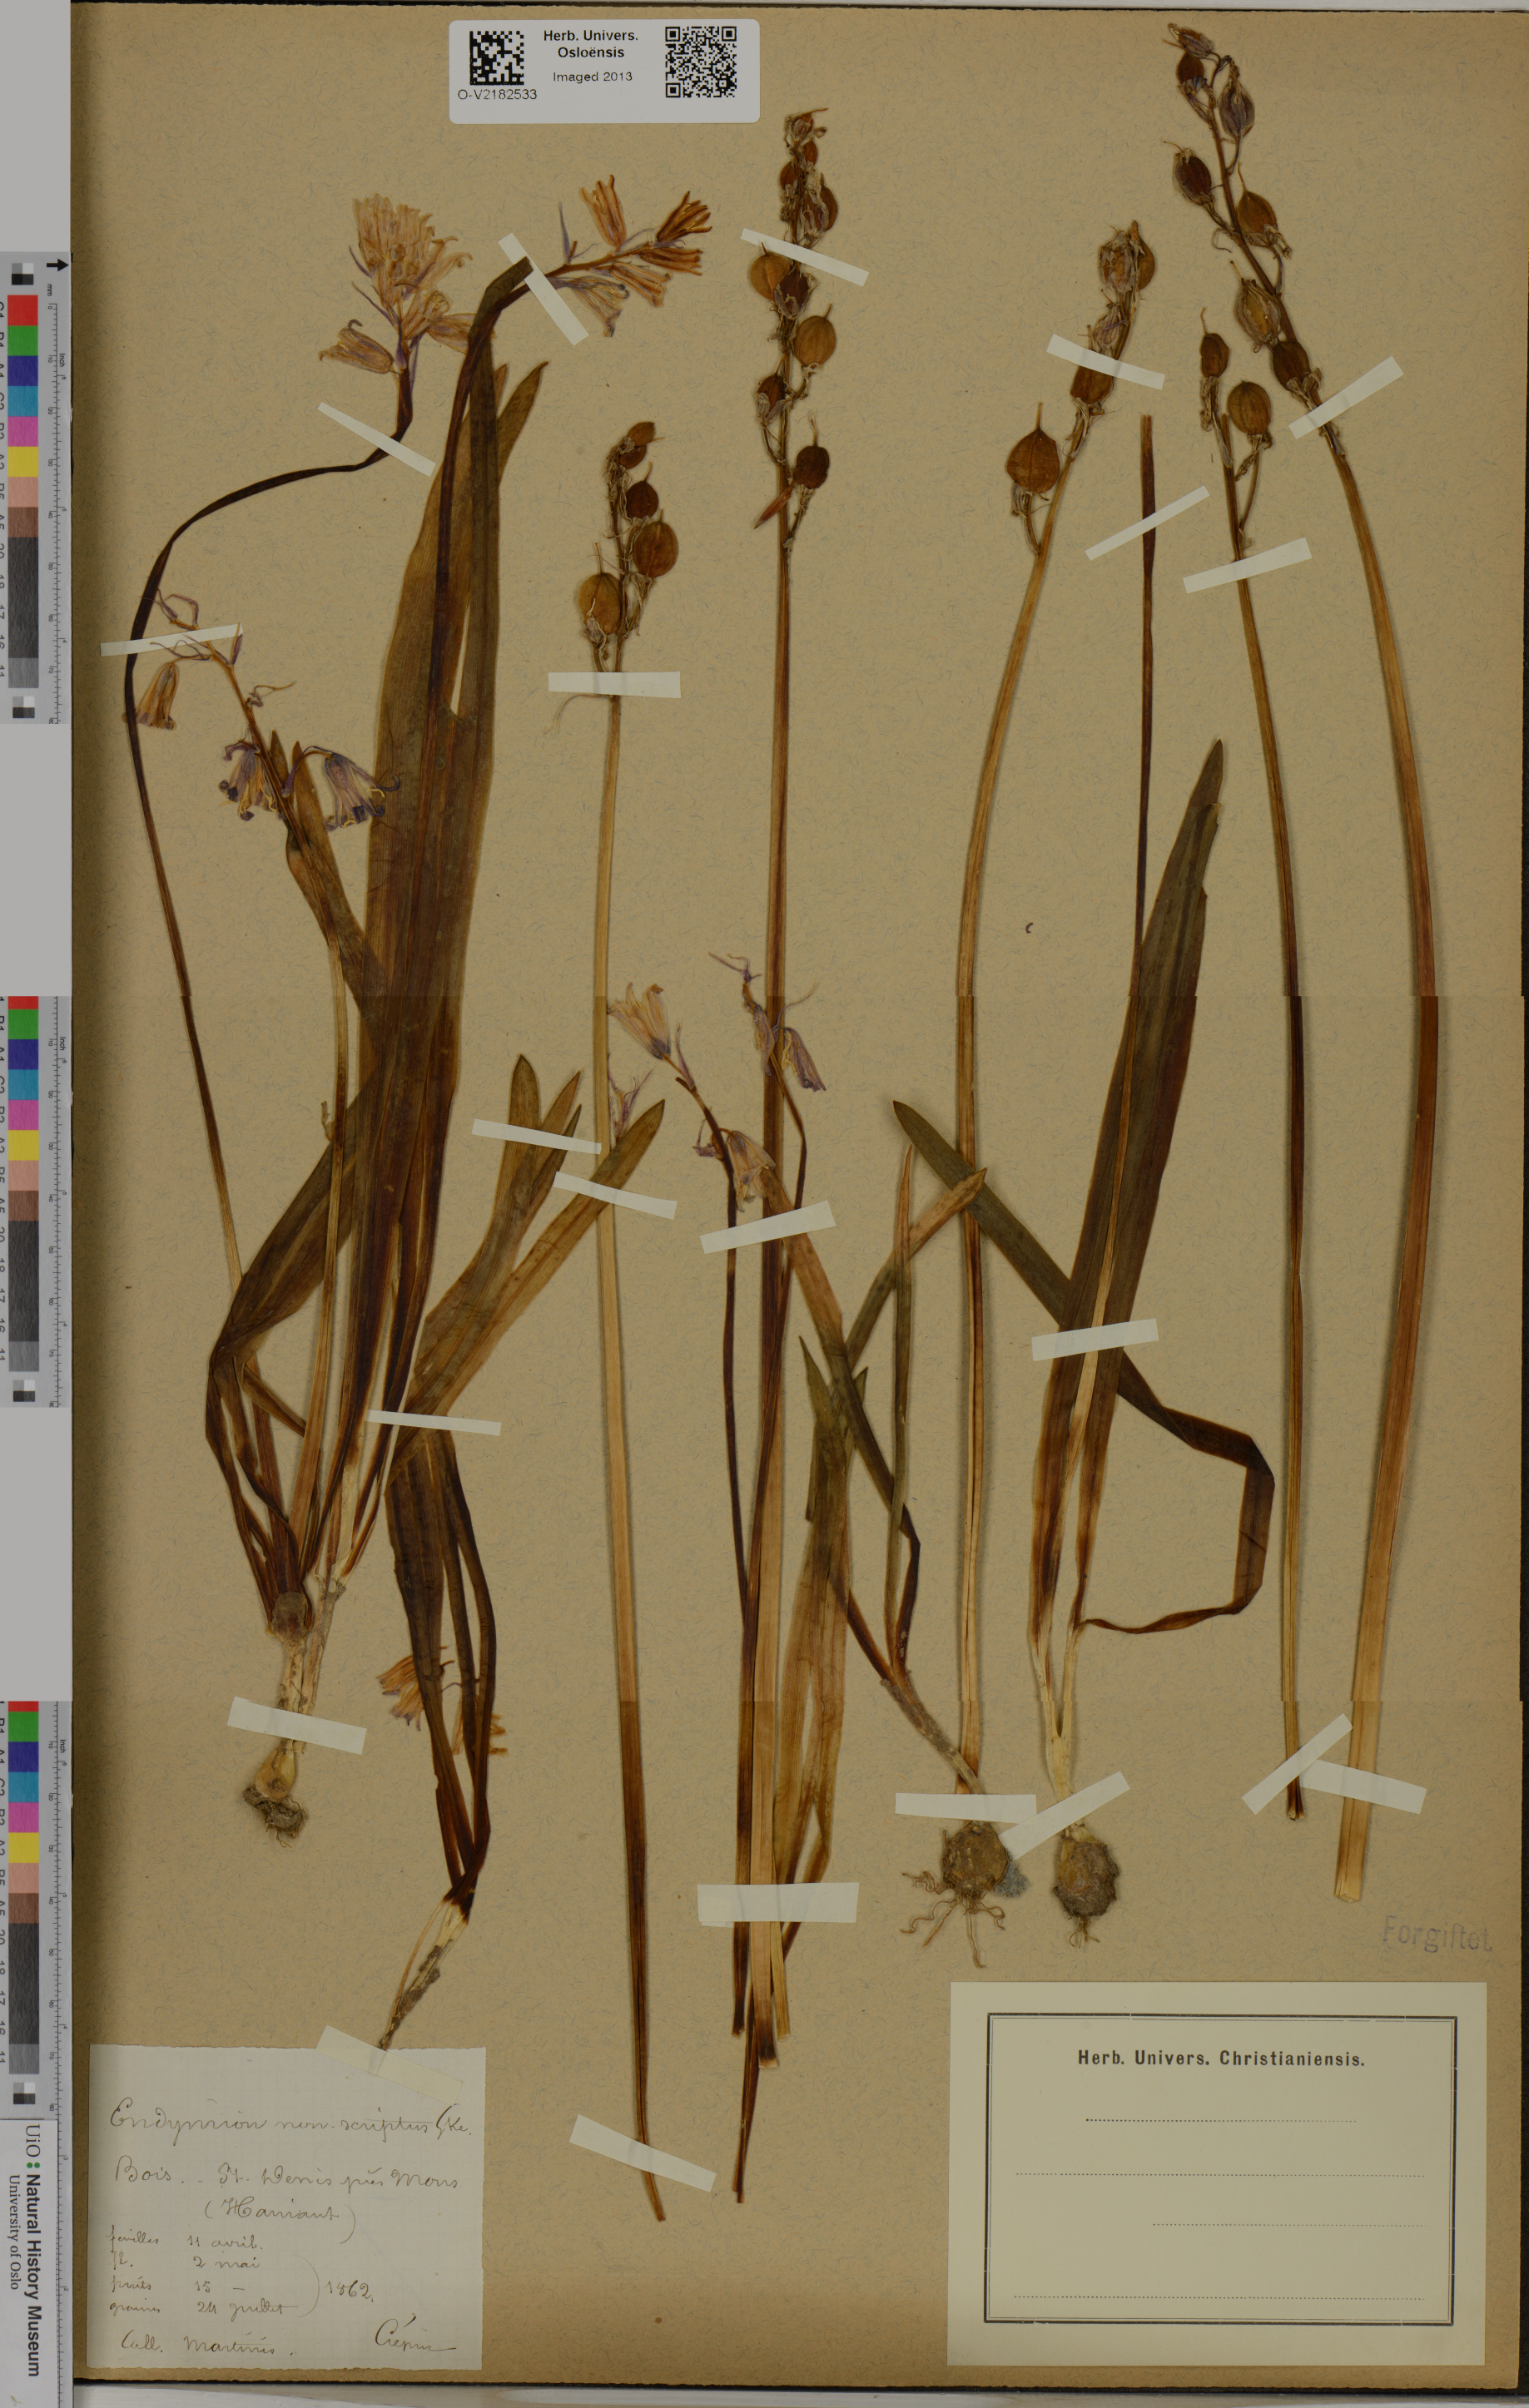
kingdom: Plantae
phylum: Tracheophyta
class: Liliopsida
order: Asparagales
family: Asparagaceae
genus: Hyacinthoides
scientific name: Hyacinthoides non-scripta
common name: Bluebell
